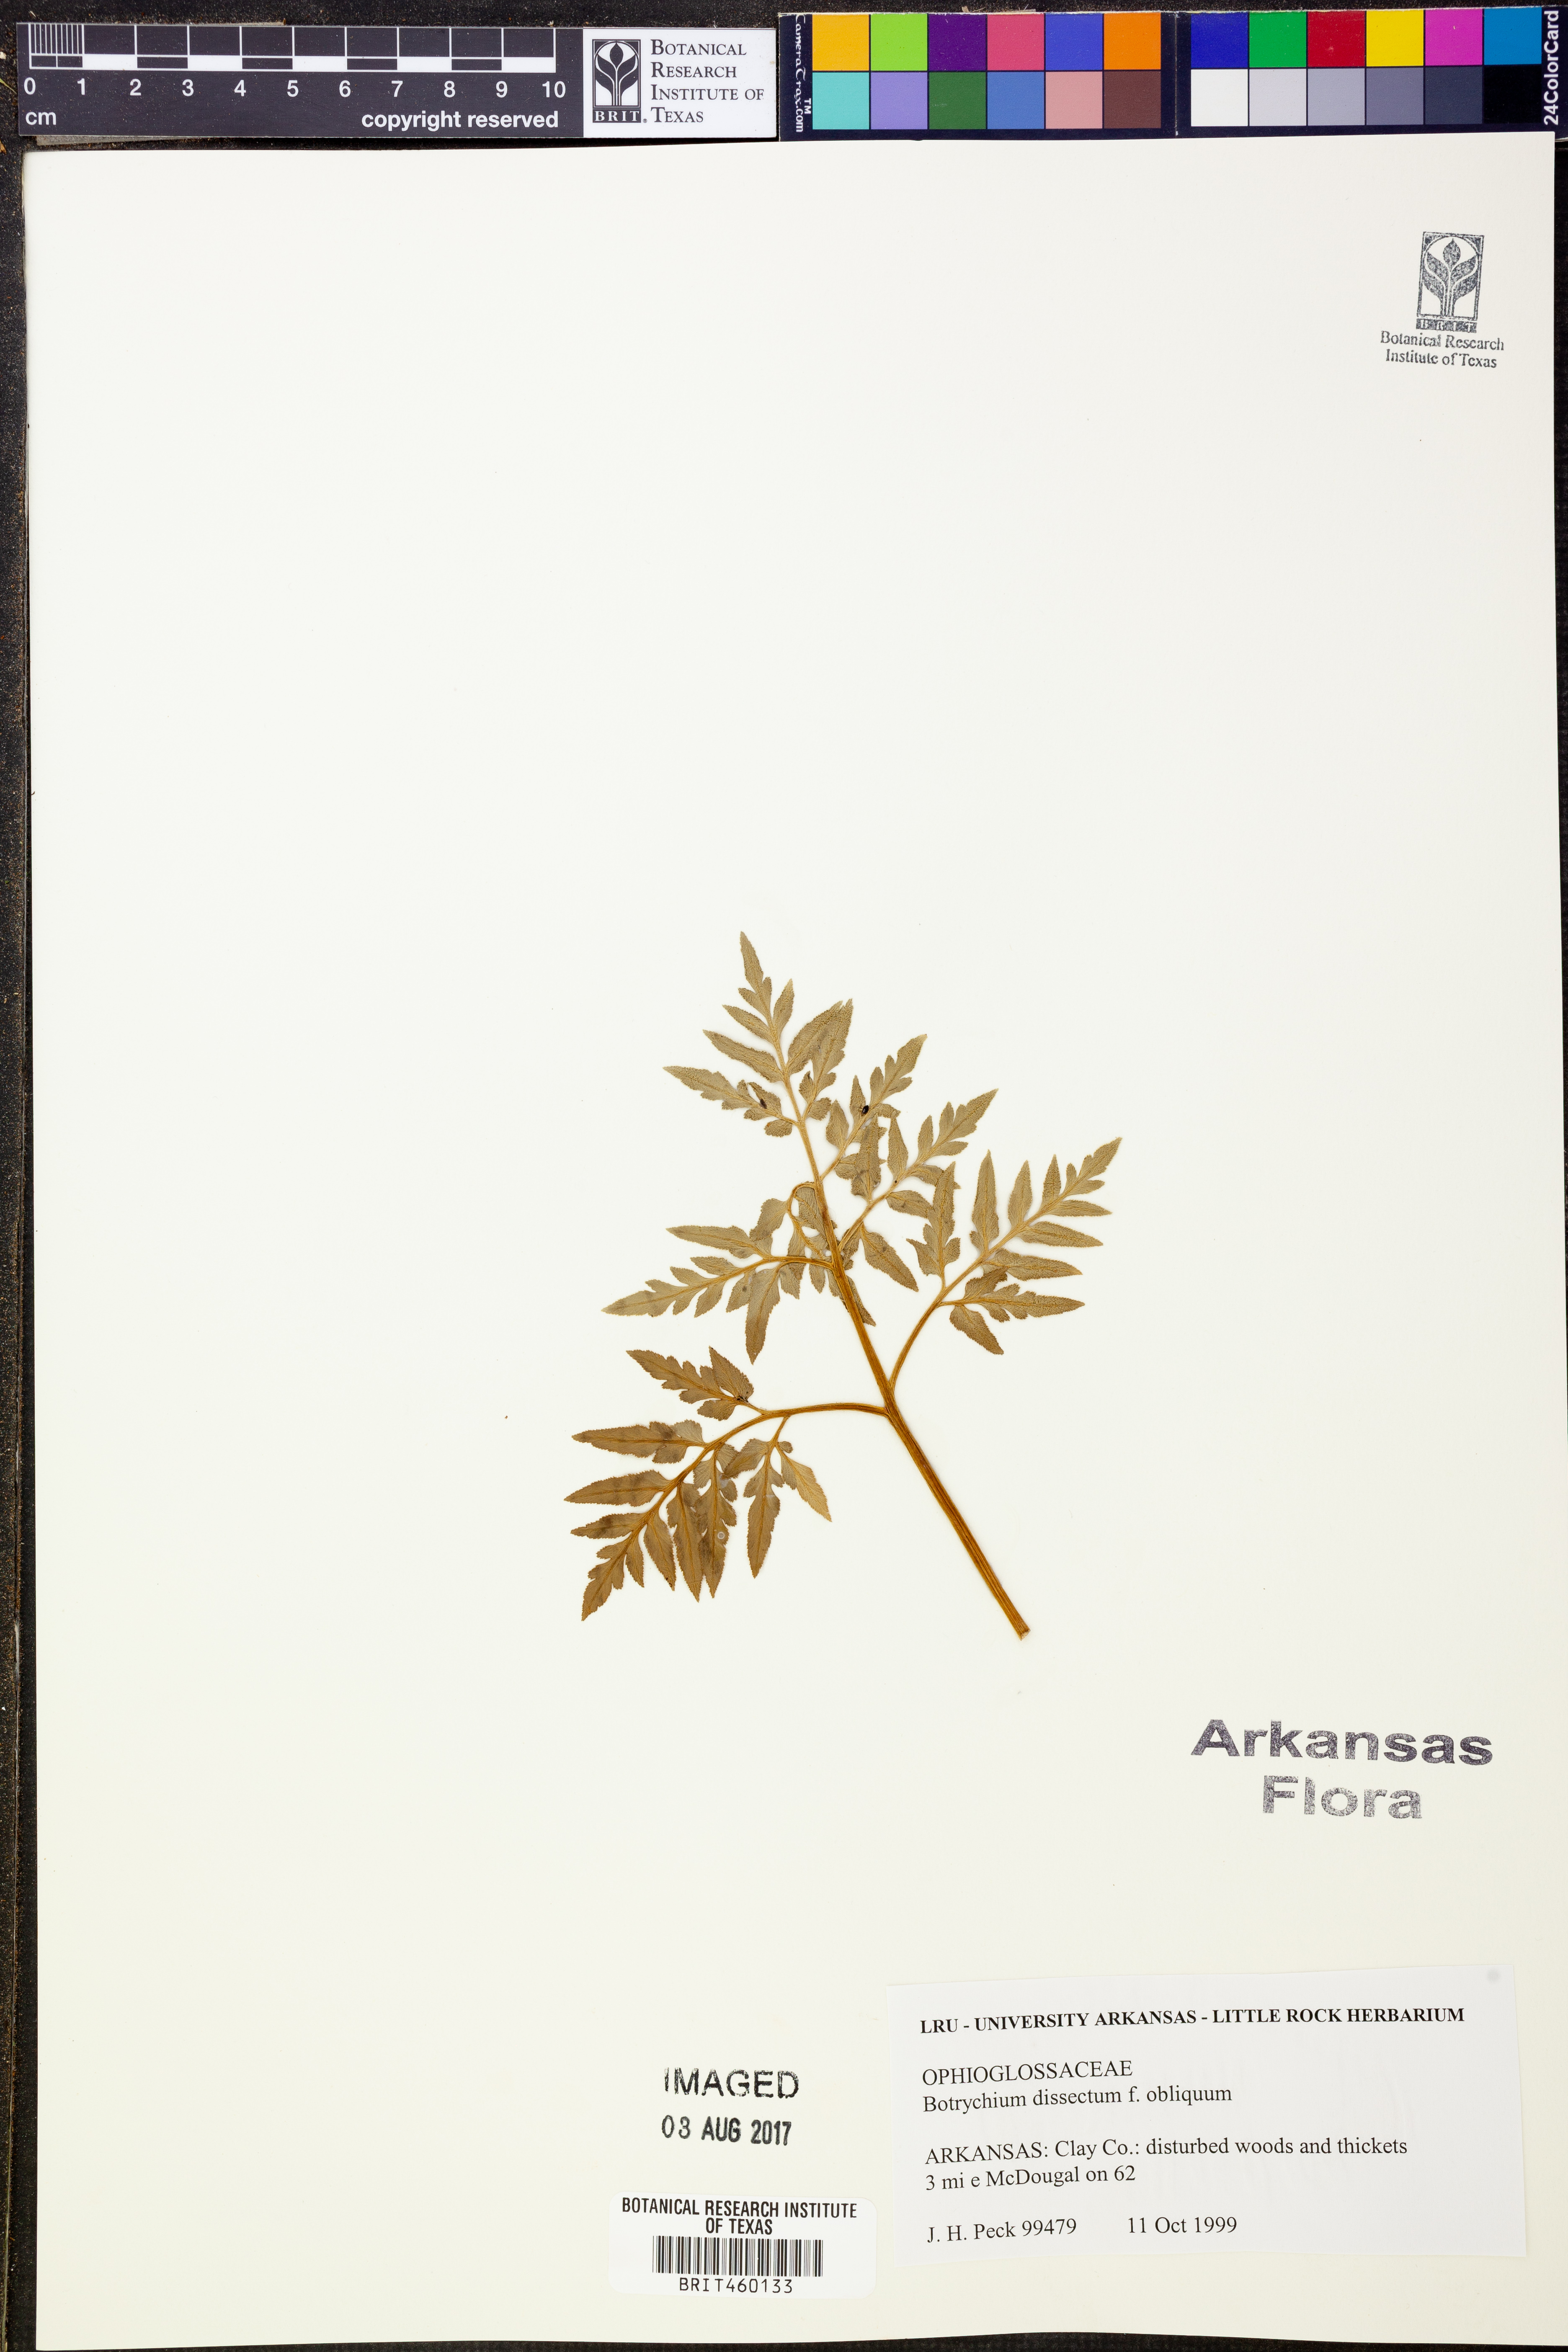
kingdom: Plantae
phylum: Tracheophyta
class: Polypodiopsida
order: Ophioglossales
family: Ophioglossaceae
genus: Sceptridium
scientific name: Sceptridium dissectum
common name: Cut-leaved grapefern
